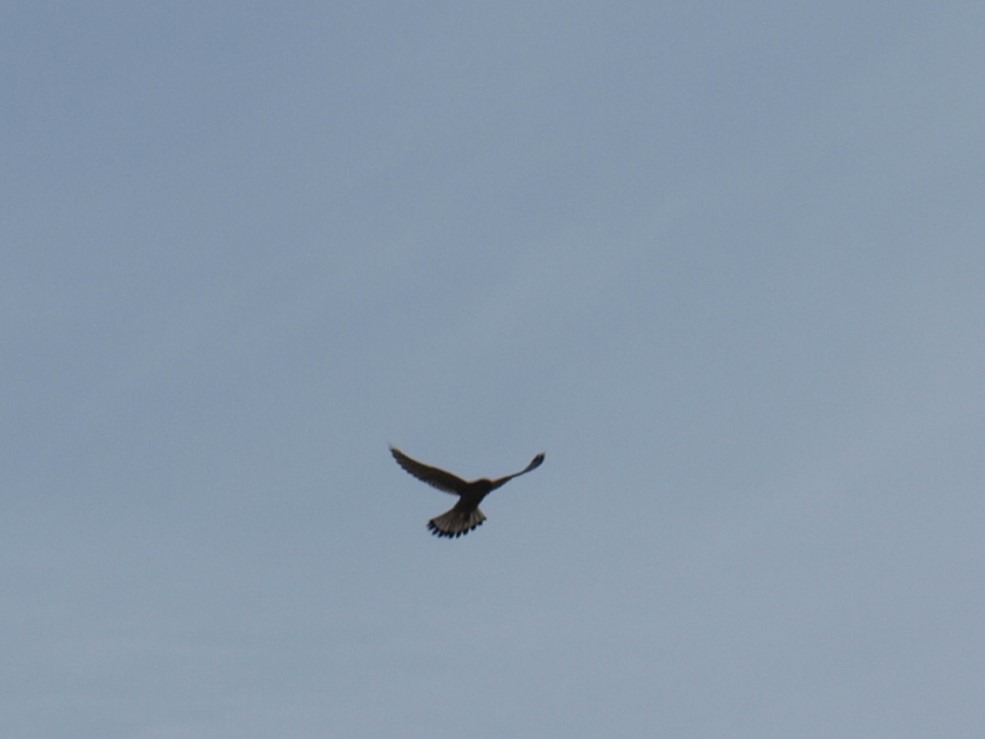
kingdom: Animalia
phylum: Chordata
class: Aves
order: Falconiformes
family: Falconidae
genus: Falco
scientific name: Falco tinnunculus
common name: Tårnfalk
